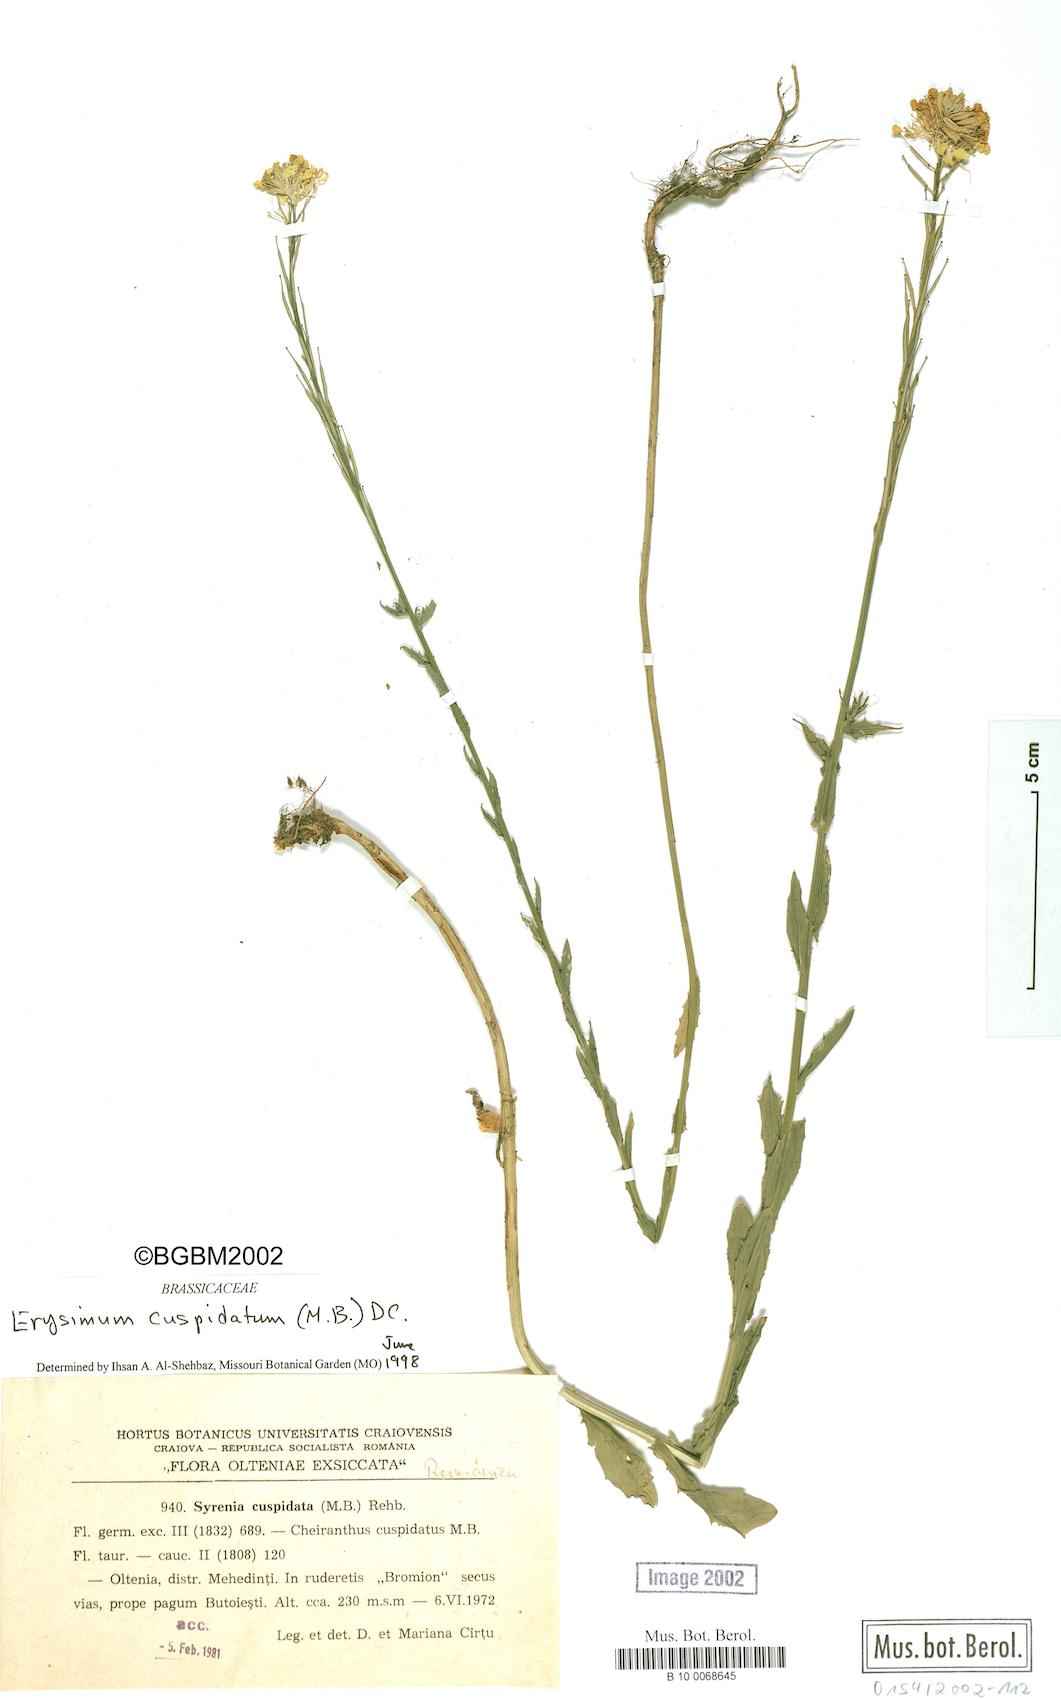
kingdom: Plantae
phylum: Tracheophyta
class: Magnoliopsida
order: Brassicales
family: Brassicaceae
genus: Erysimum
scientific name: Erysimum cuspidatum
